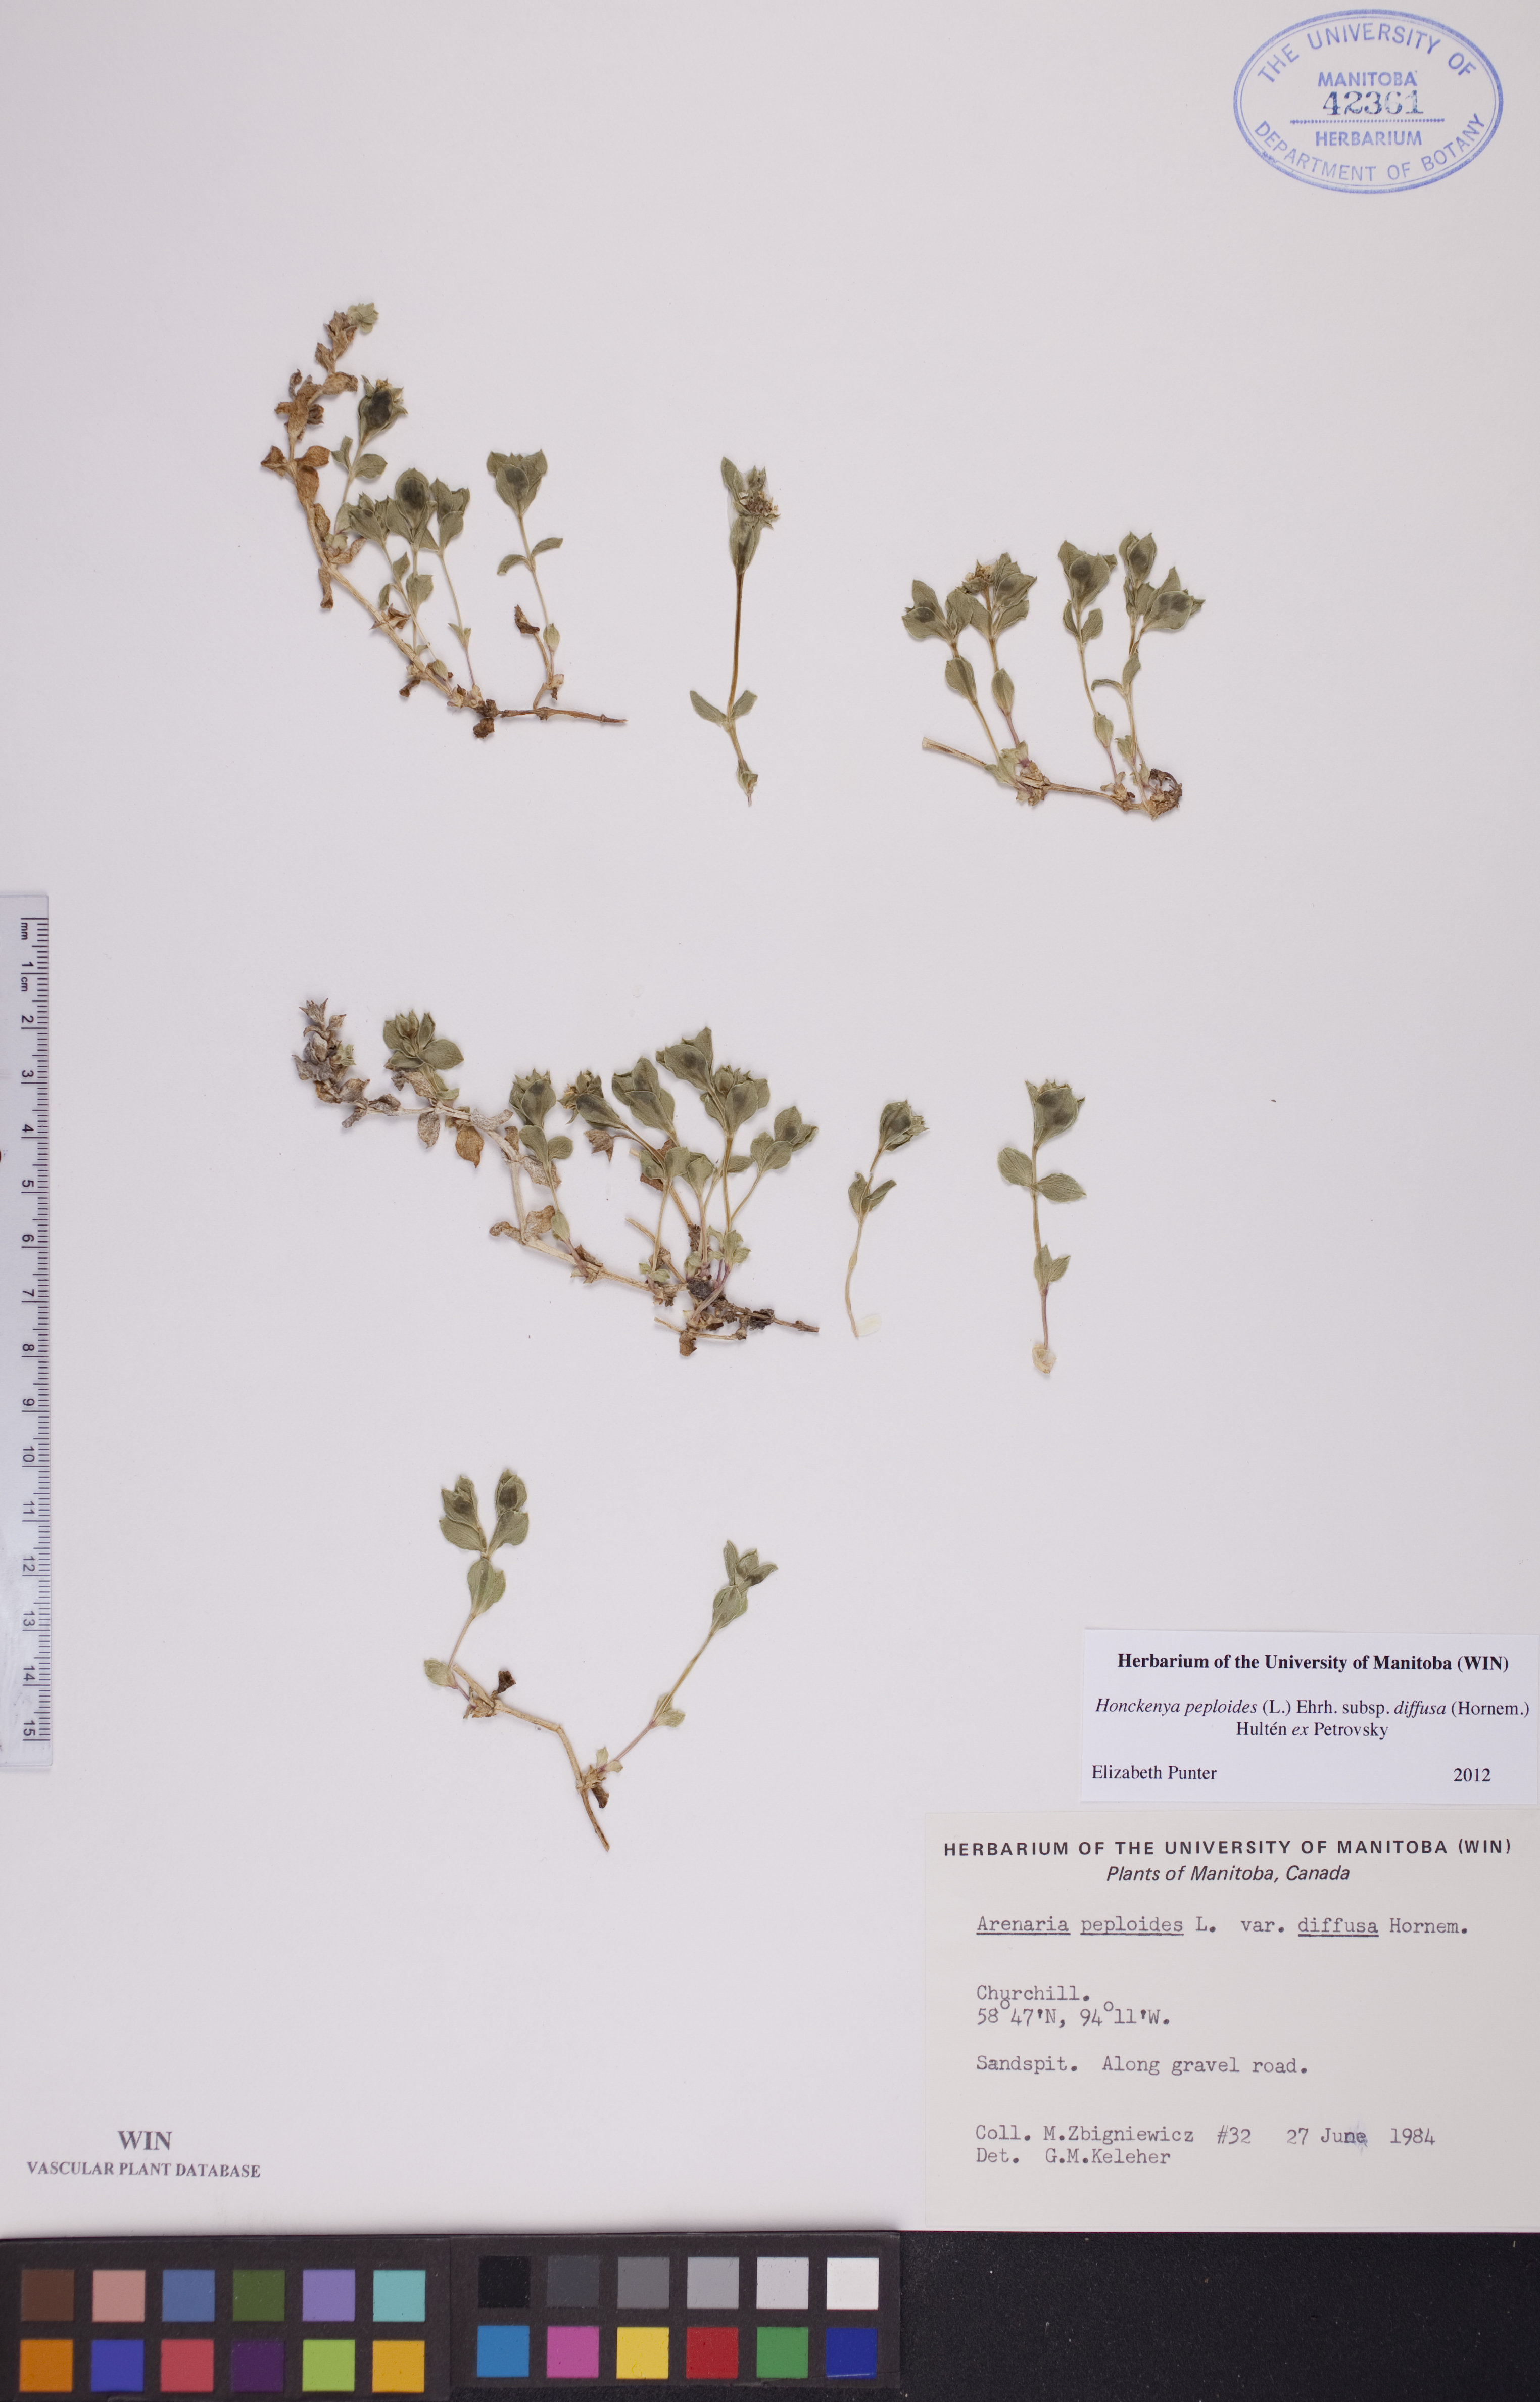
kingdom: Plantae
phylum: Tracheophyta
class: Magnoliopsida
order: Caryophyllales
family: Caryophyllaceae
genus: Honckenya
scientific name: Honckenya peploides
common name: Sea sandwort
